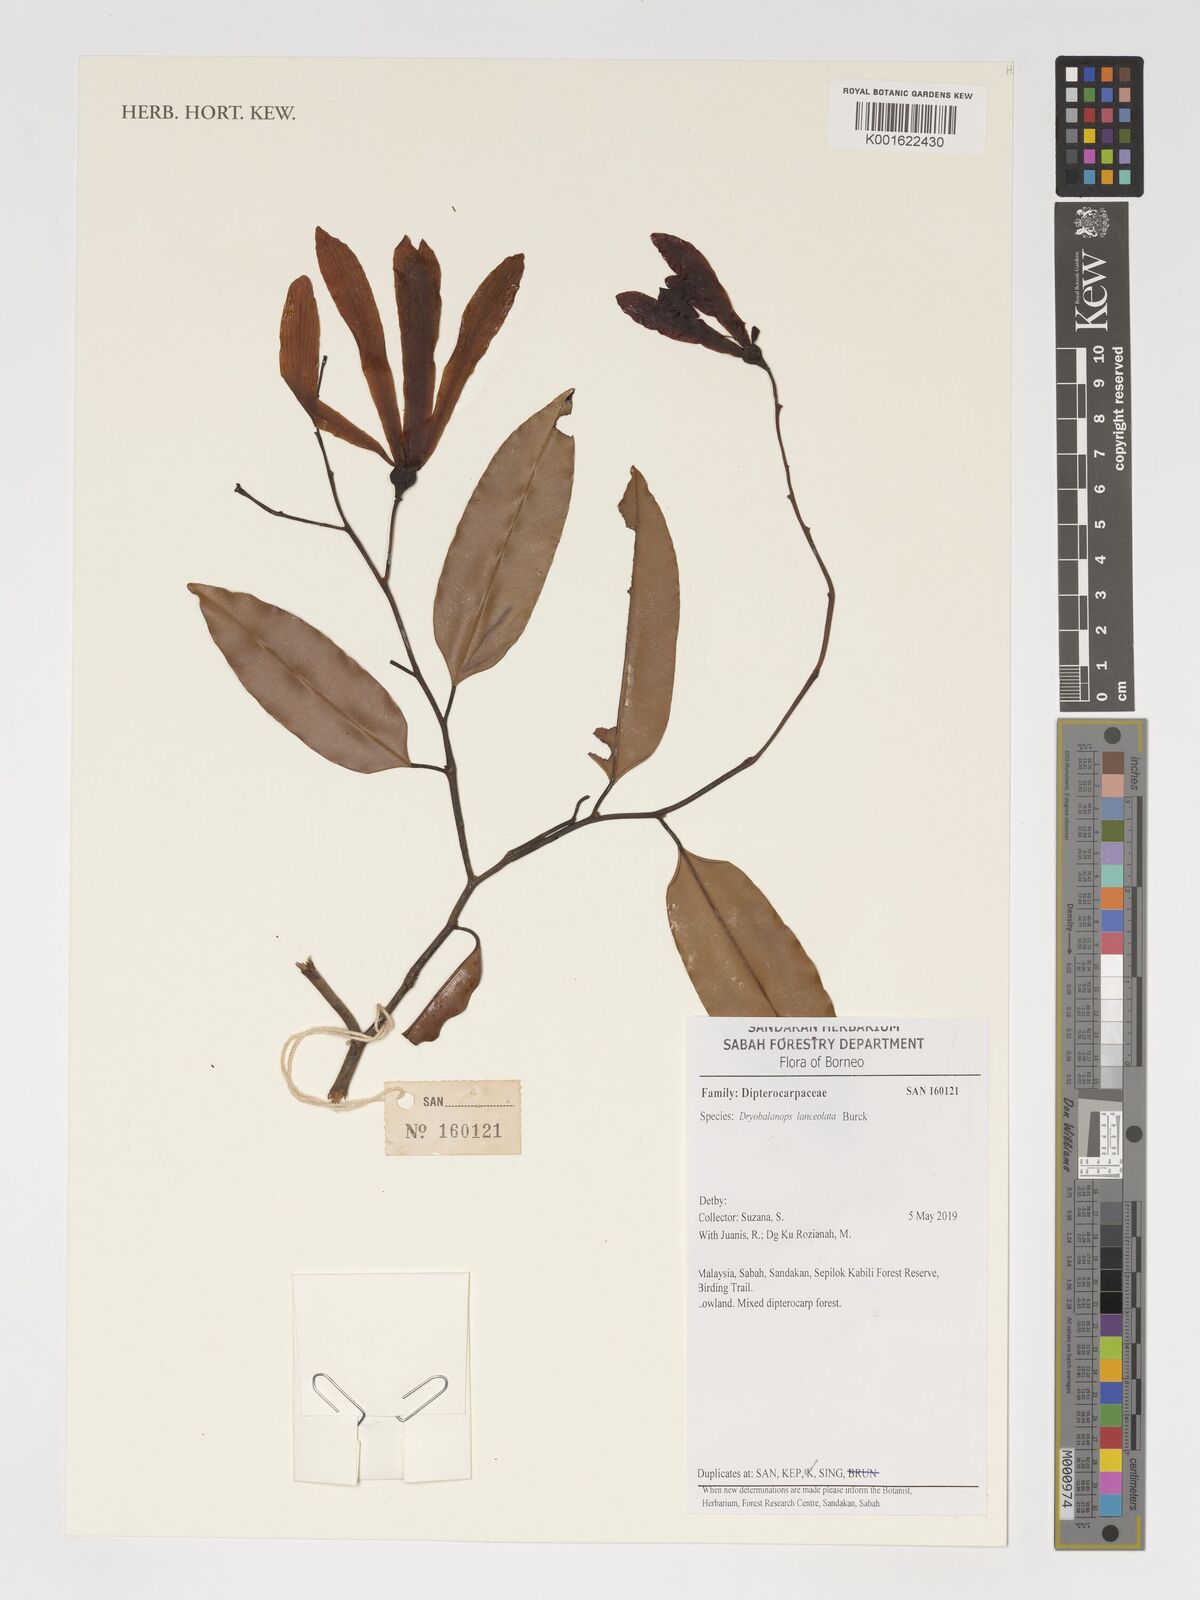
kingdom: Plantae
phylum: Tracheophyta
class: Magnoliopsida
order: Malvales
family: Dipterocarpaceae
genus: Dryobalanops
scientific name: Dryobalanops lanceolata
